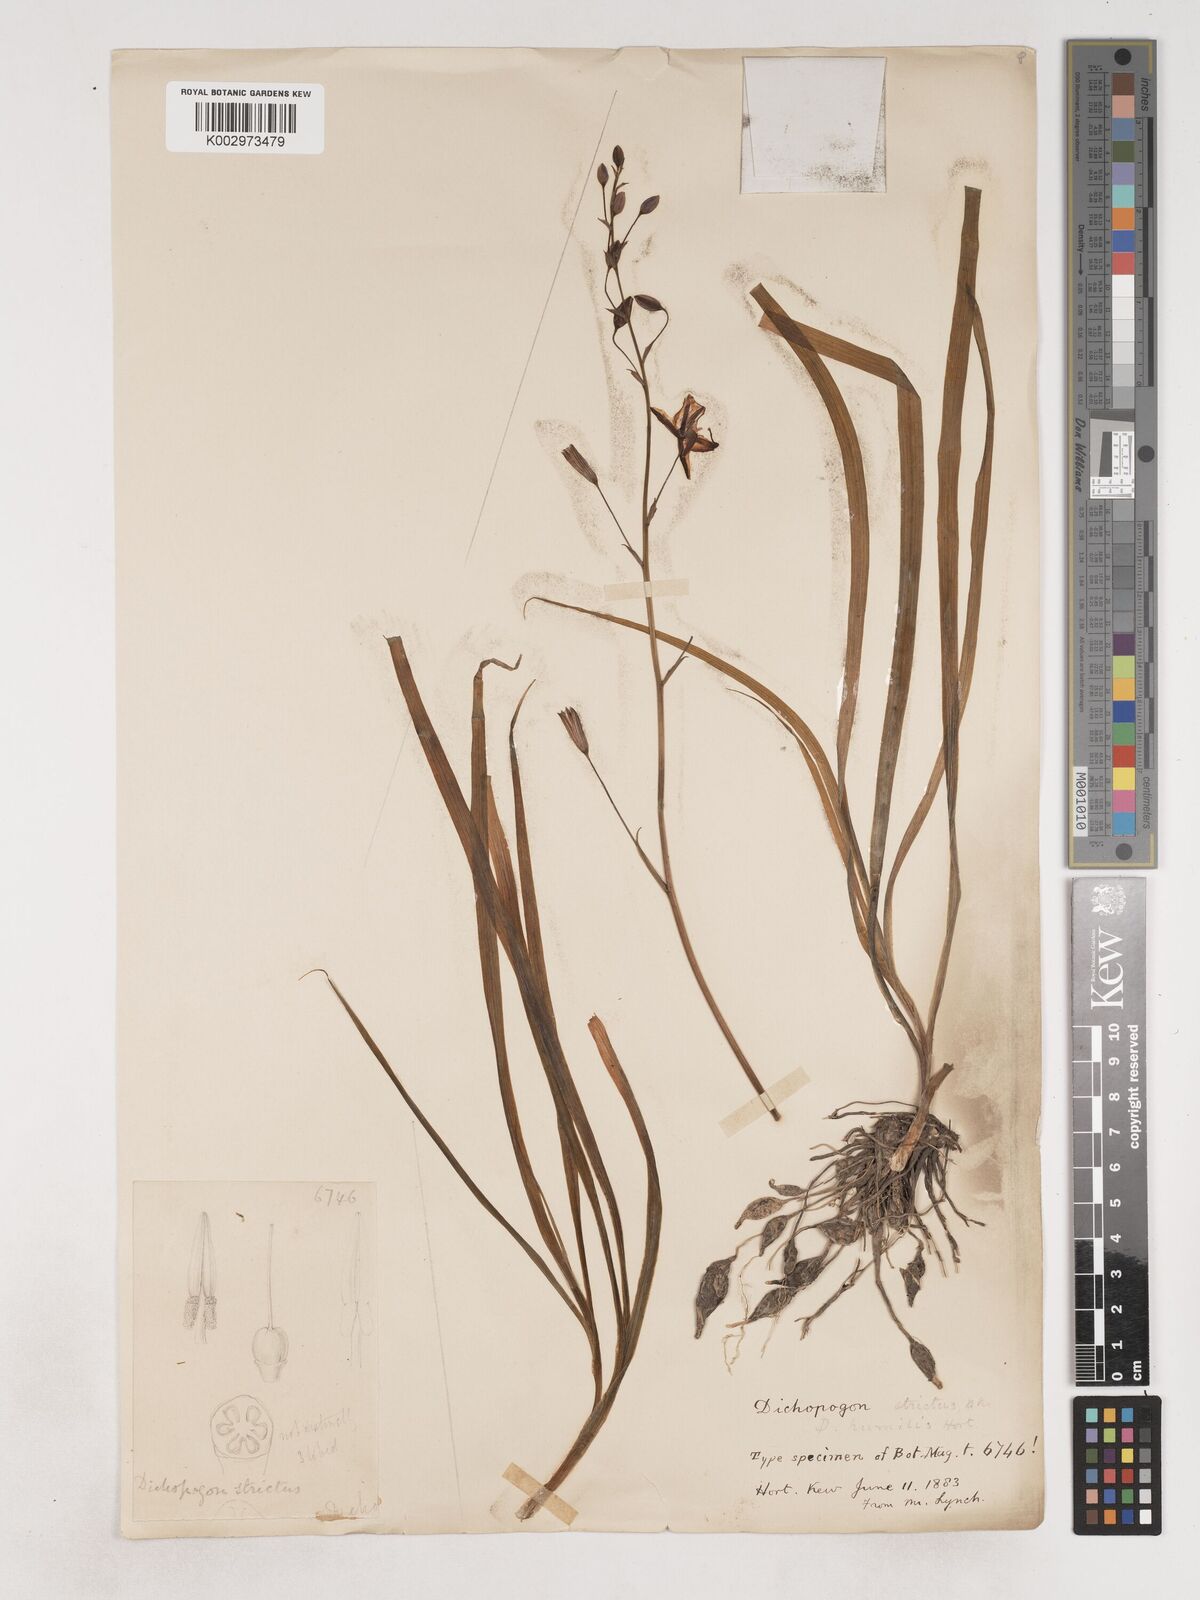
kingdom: Plantae
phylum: Tracheophyta
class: Liliopsida
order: Asparagales
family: Asparagaceae
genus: Arthropodium
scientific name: Arthropodium strictum
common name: Chocolate-lily
